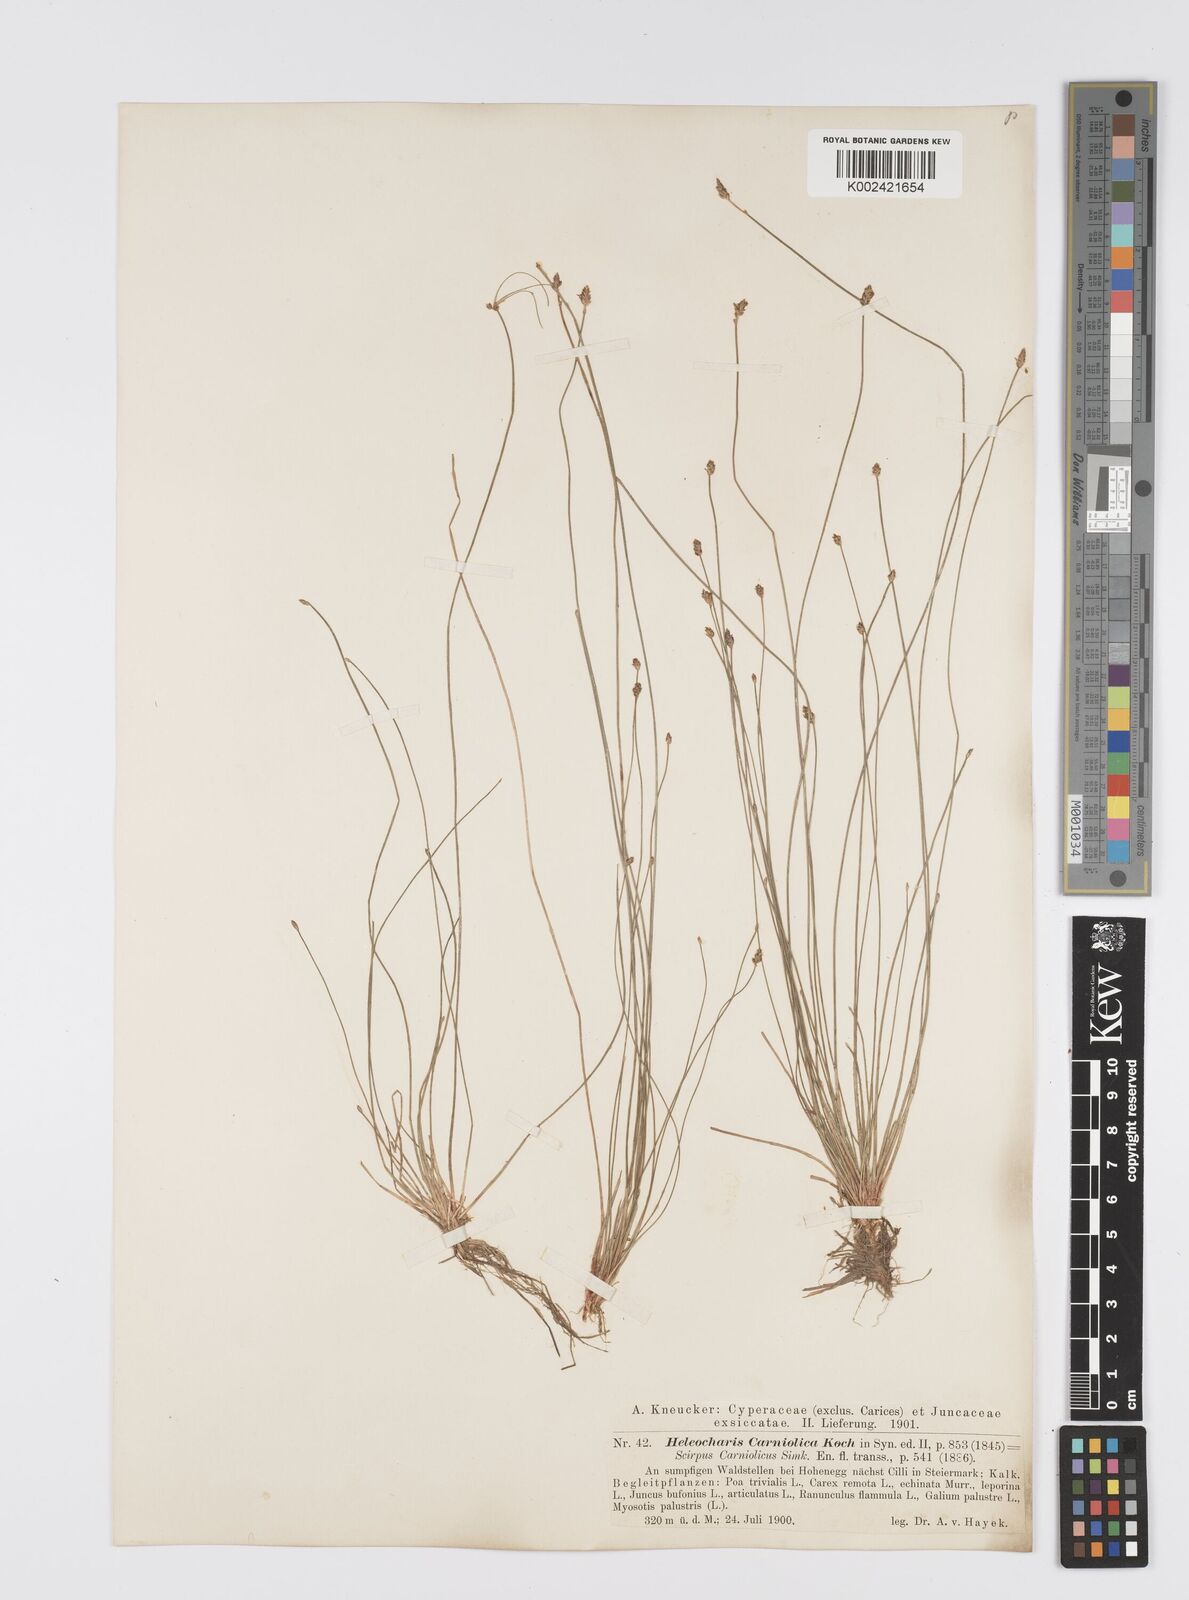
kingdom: Plantae
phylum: Tracheophyta
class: Liliopsida
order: Poales
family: Cyperaceae
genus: Eleocharis
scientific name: Eleocharis carniolica
